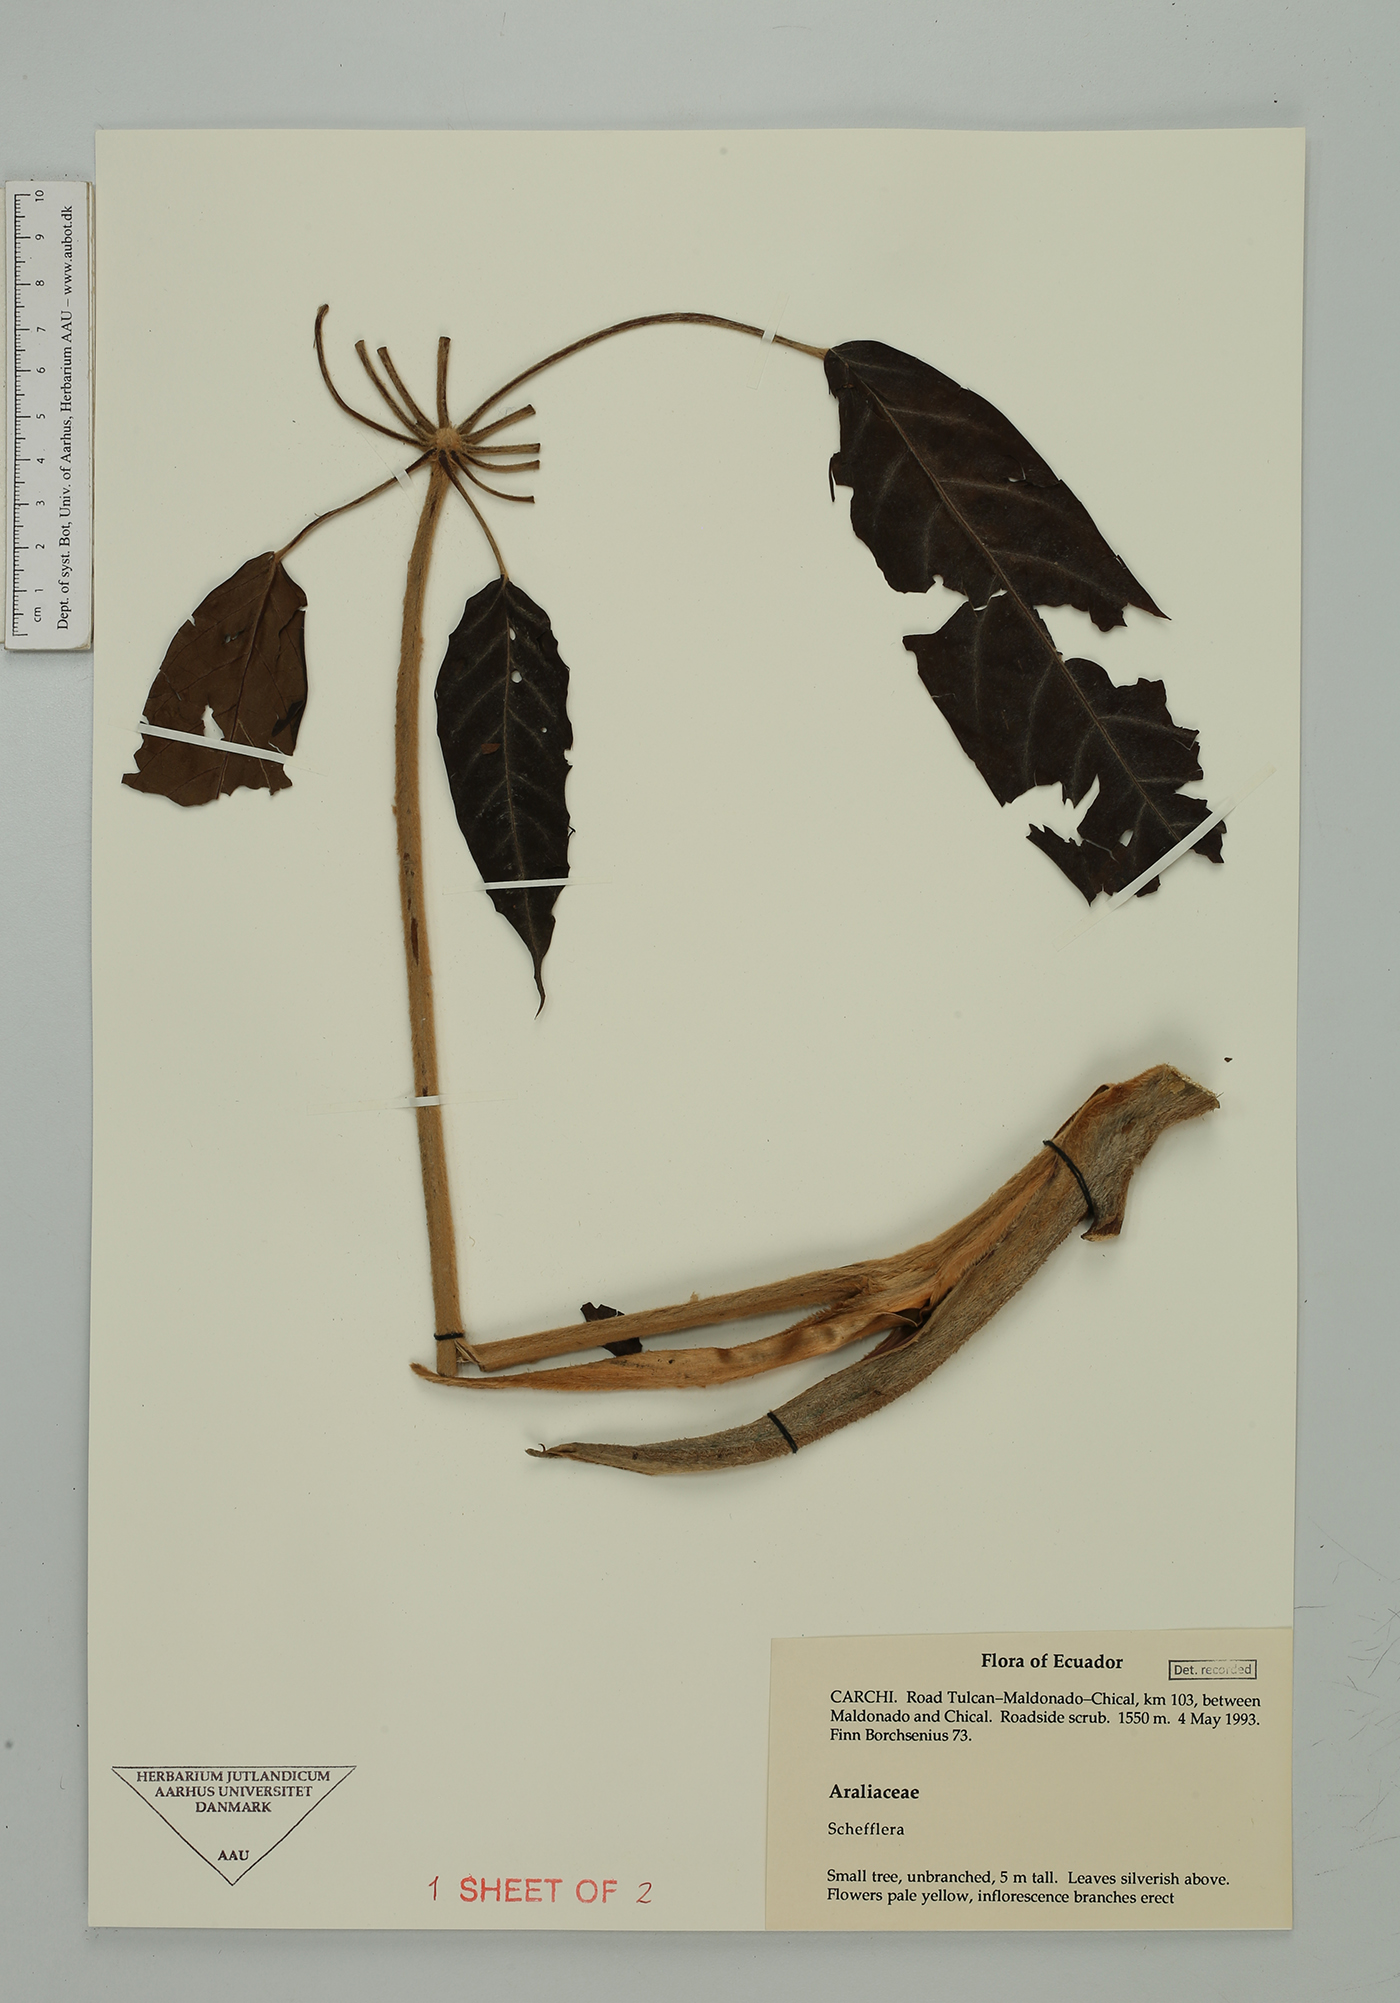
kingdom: Plantae
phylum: Tracheophyta
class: Magnoliopsida
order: Apiales
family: Araliaceae
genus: Sciodaphyllum
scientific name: Sciodaphyllum
